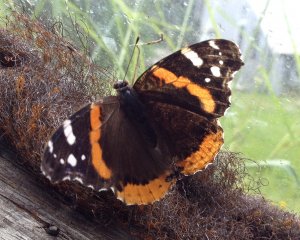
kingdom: Animalia
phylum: Arthropoda
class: Insecta
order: Lepidoptera
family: Nymphalidae
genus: Vanessa
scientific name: Vanessa atalanta
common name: Red Admiral
